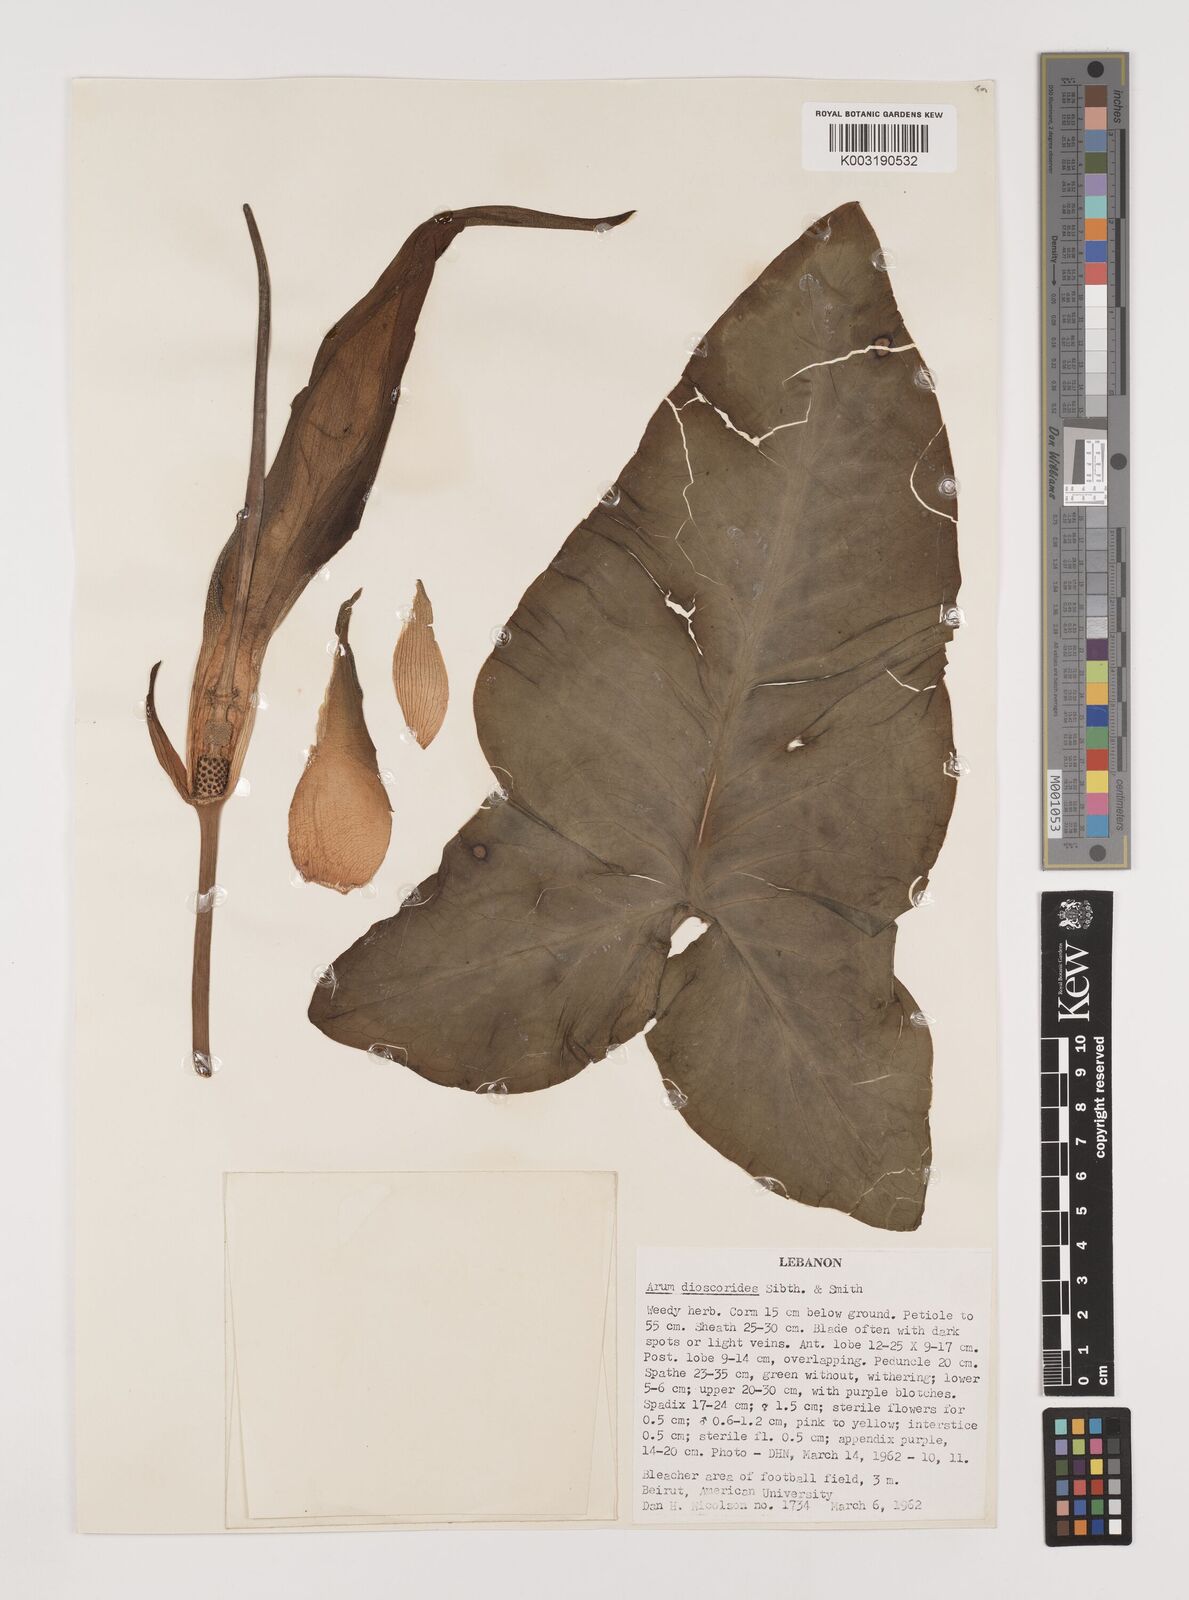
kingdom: Plantae
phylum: Tracheophyta
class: Liliopsida
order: Alismatales
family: Araceae
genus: Arum
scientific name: Arum dioscoridis
